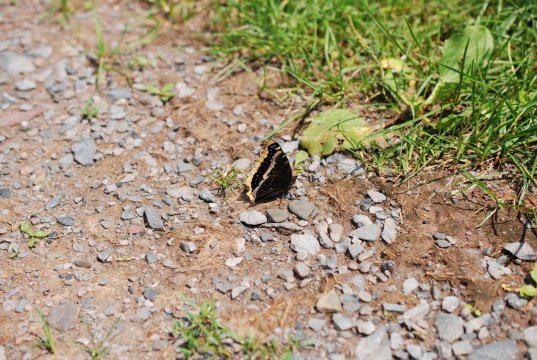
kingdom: Animalia
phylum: Arthropoda
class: Insecta
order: Lepidoptera
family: Nymphalidae
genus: Nymphalis
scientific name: Nymphalis antiopa
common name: Mourning Cloak
